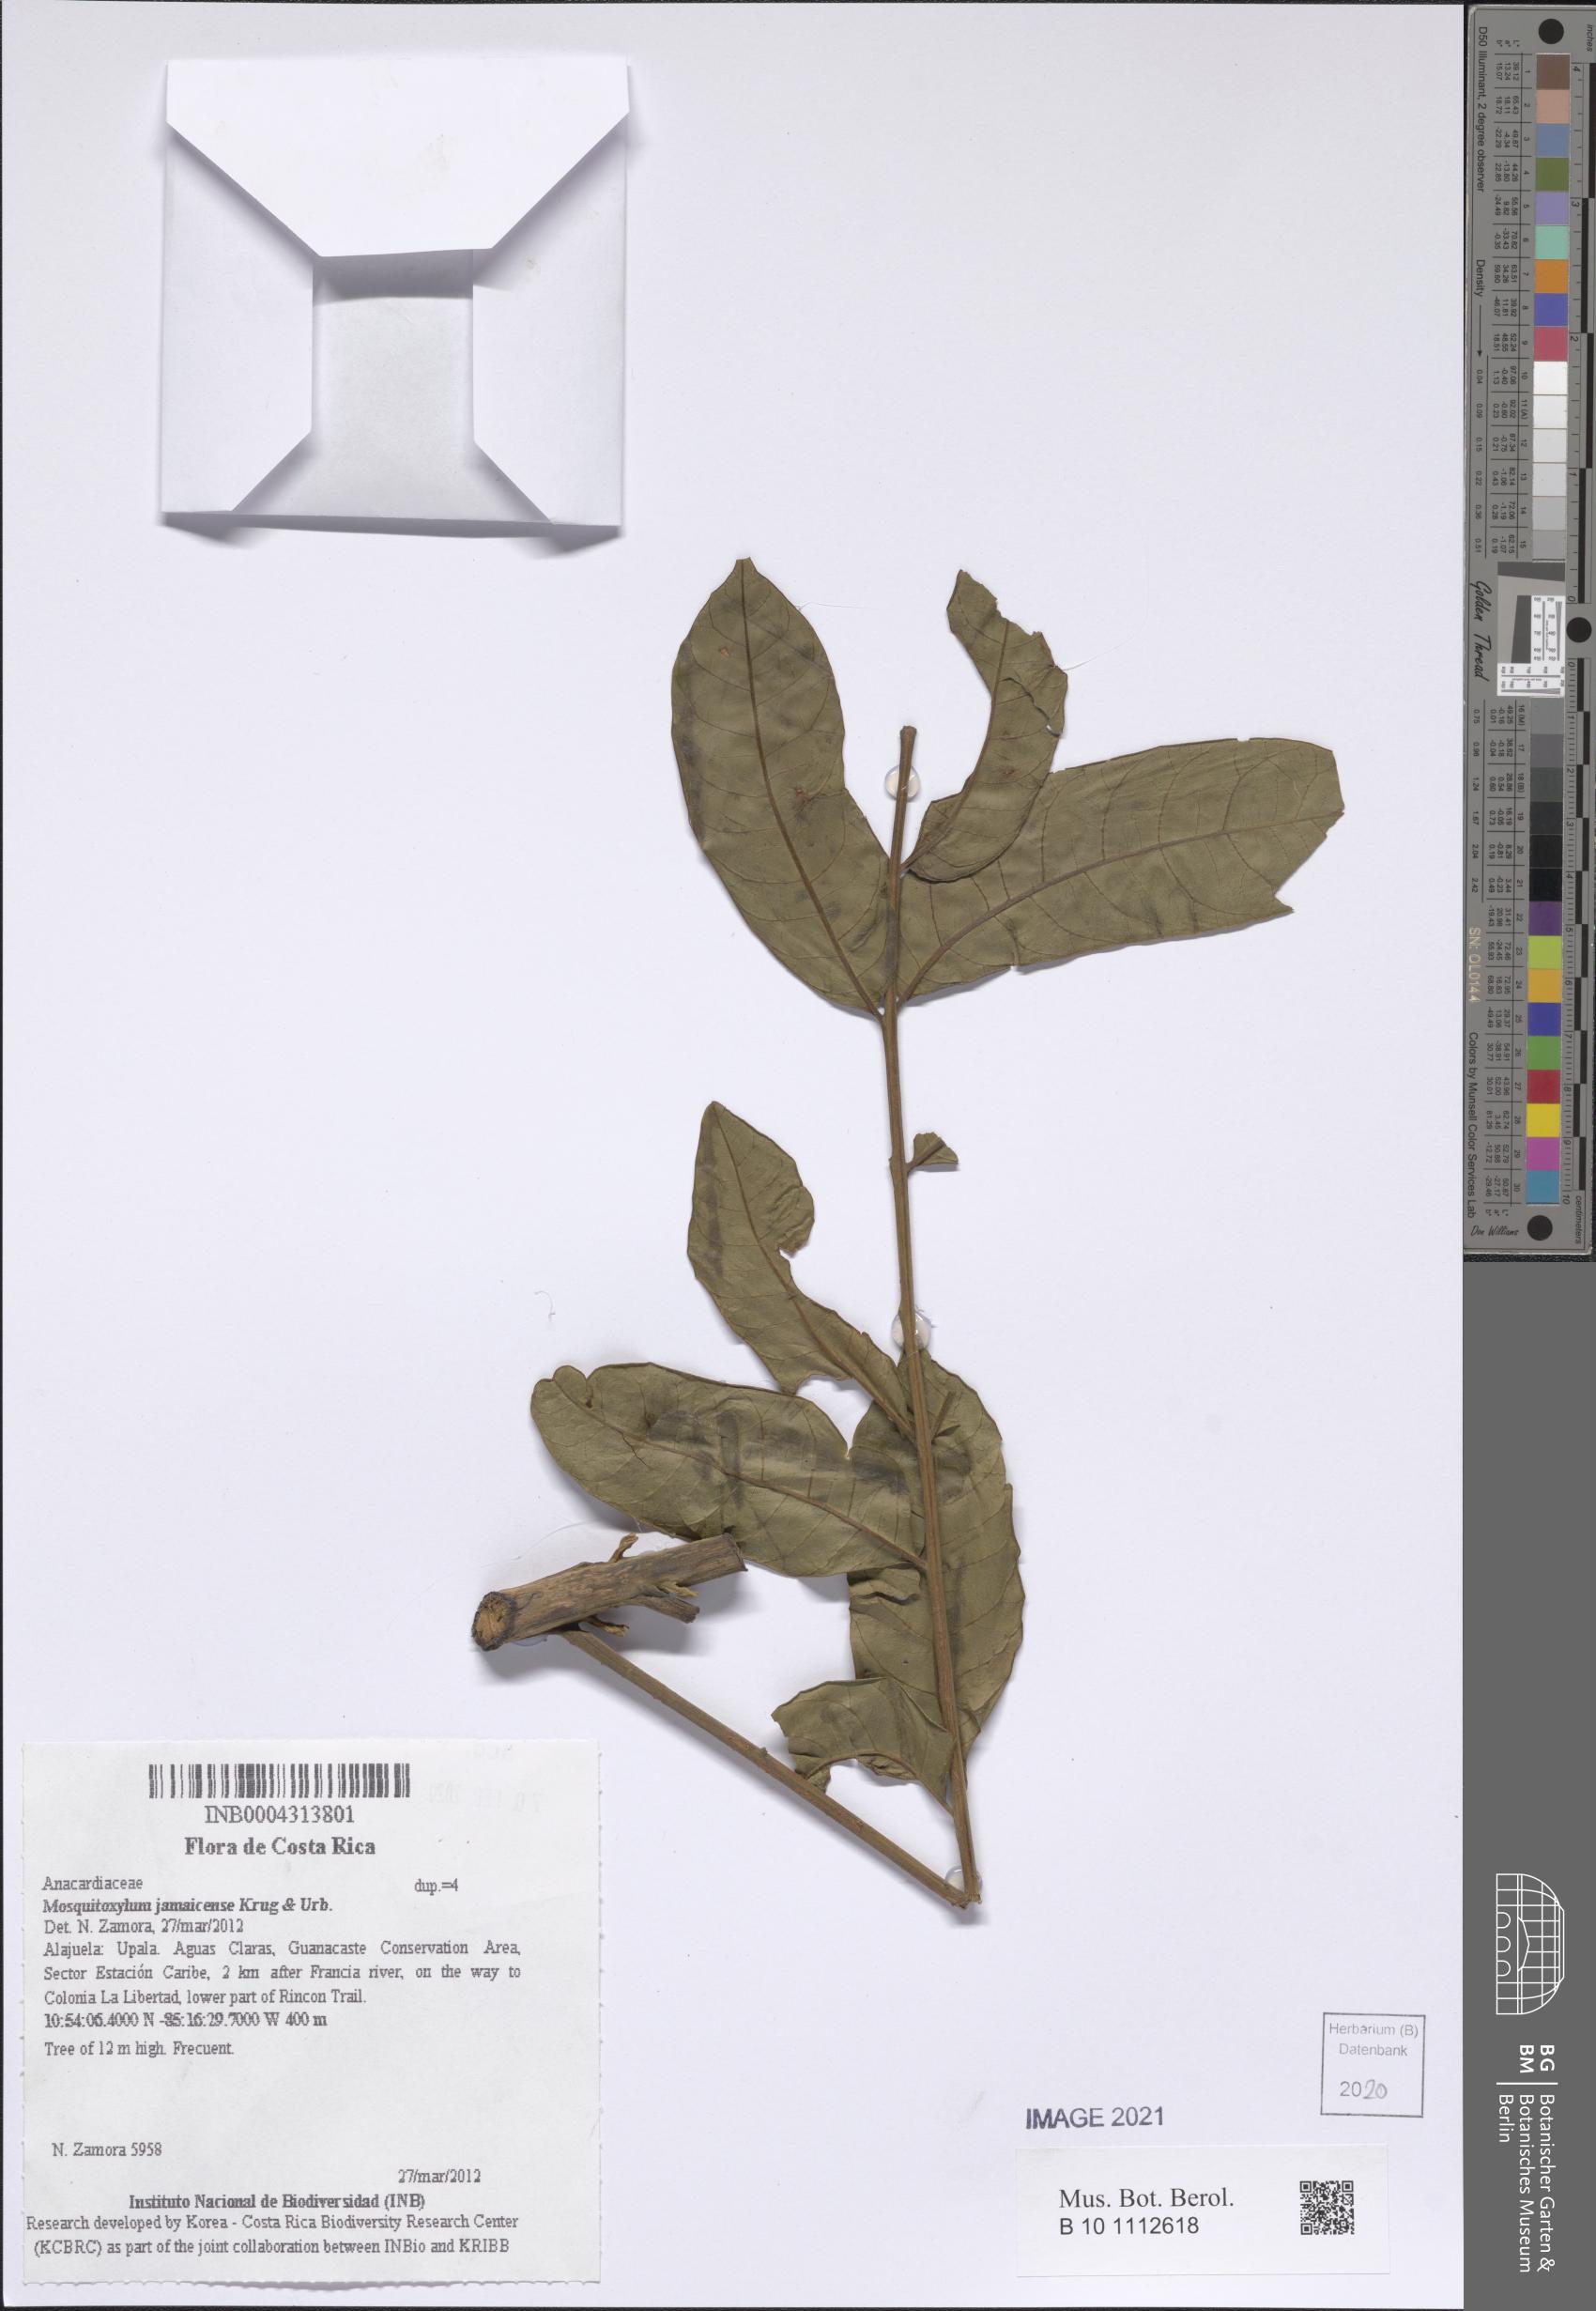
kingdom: Plantae
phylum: Tracheophyta
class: Magnoliopsida
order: Sapindales
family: Anacardiaceae
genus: Mosquitoxylum
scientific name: Mosquitoxylum jamaicense
